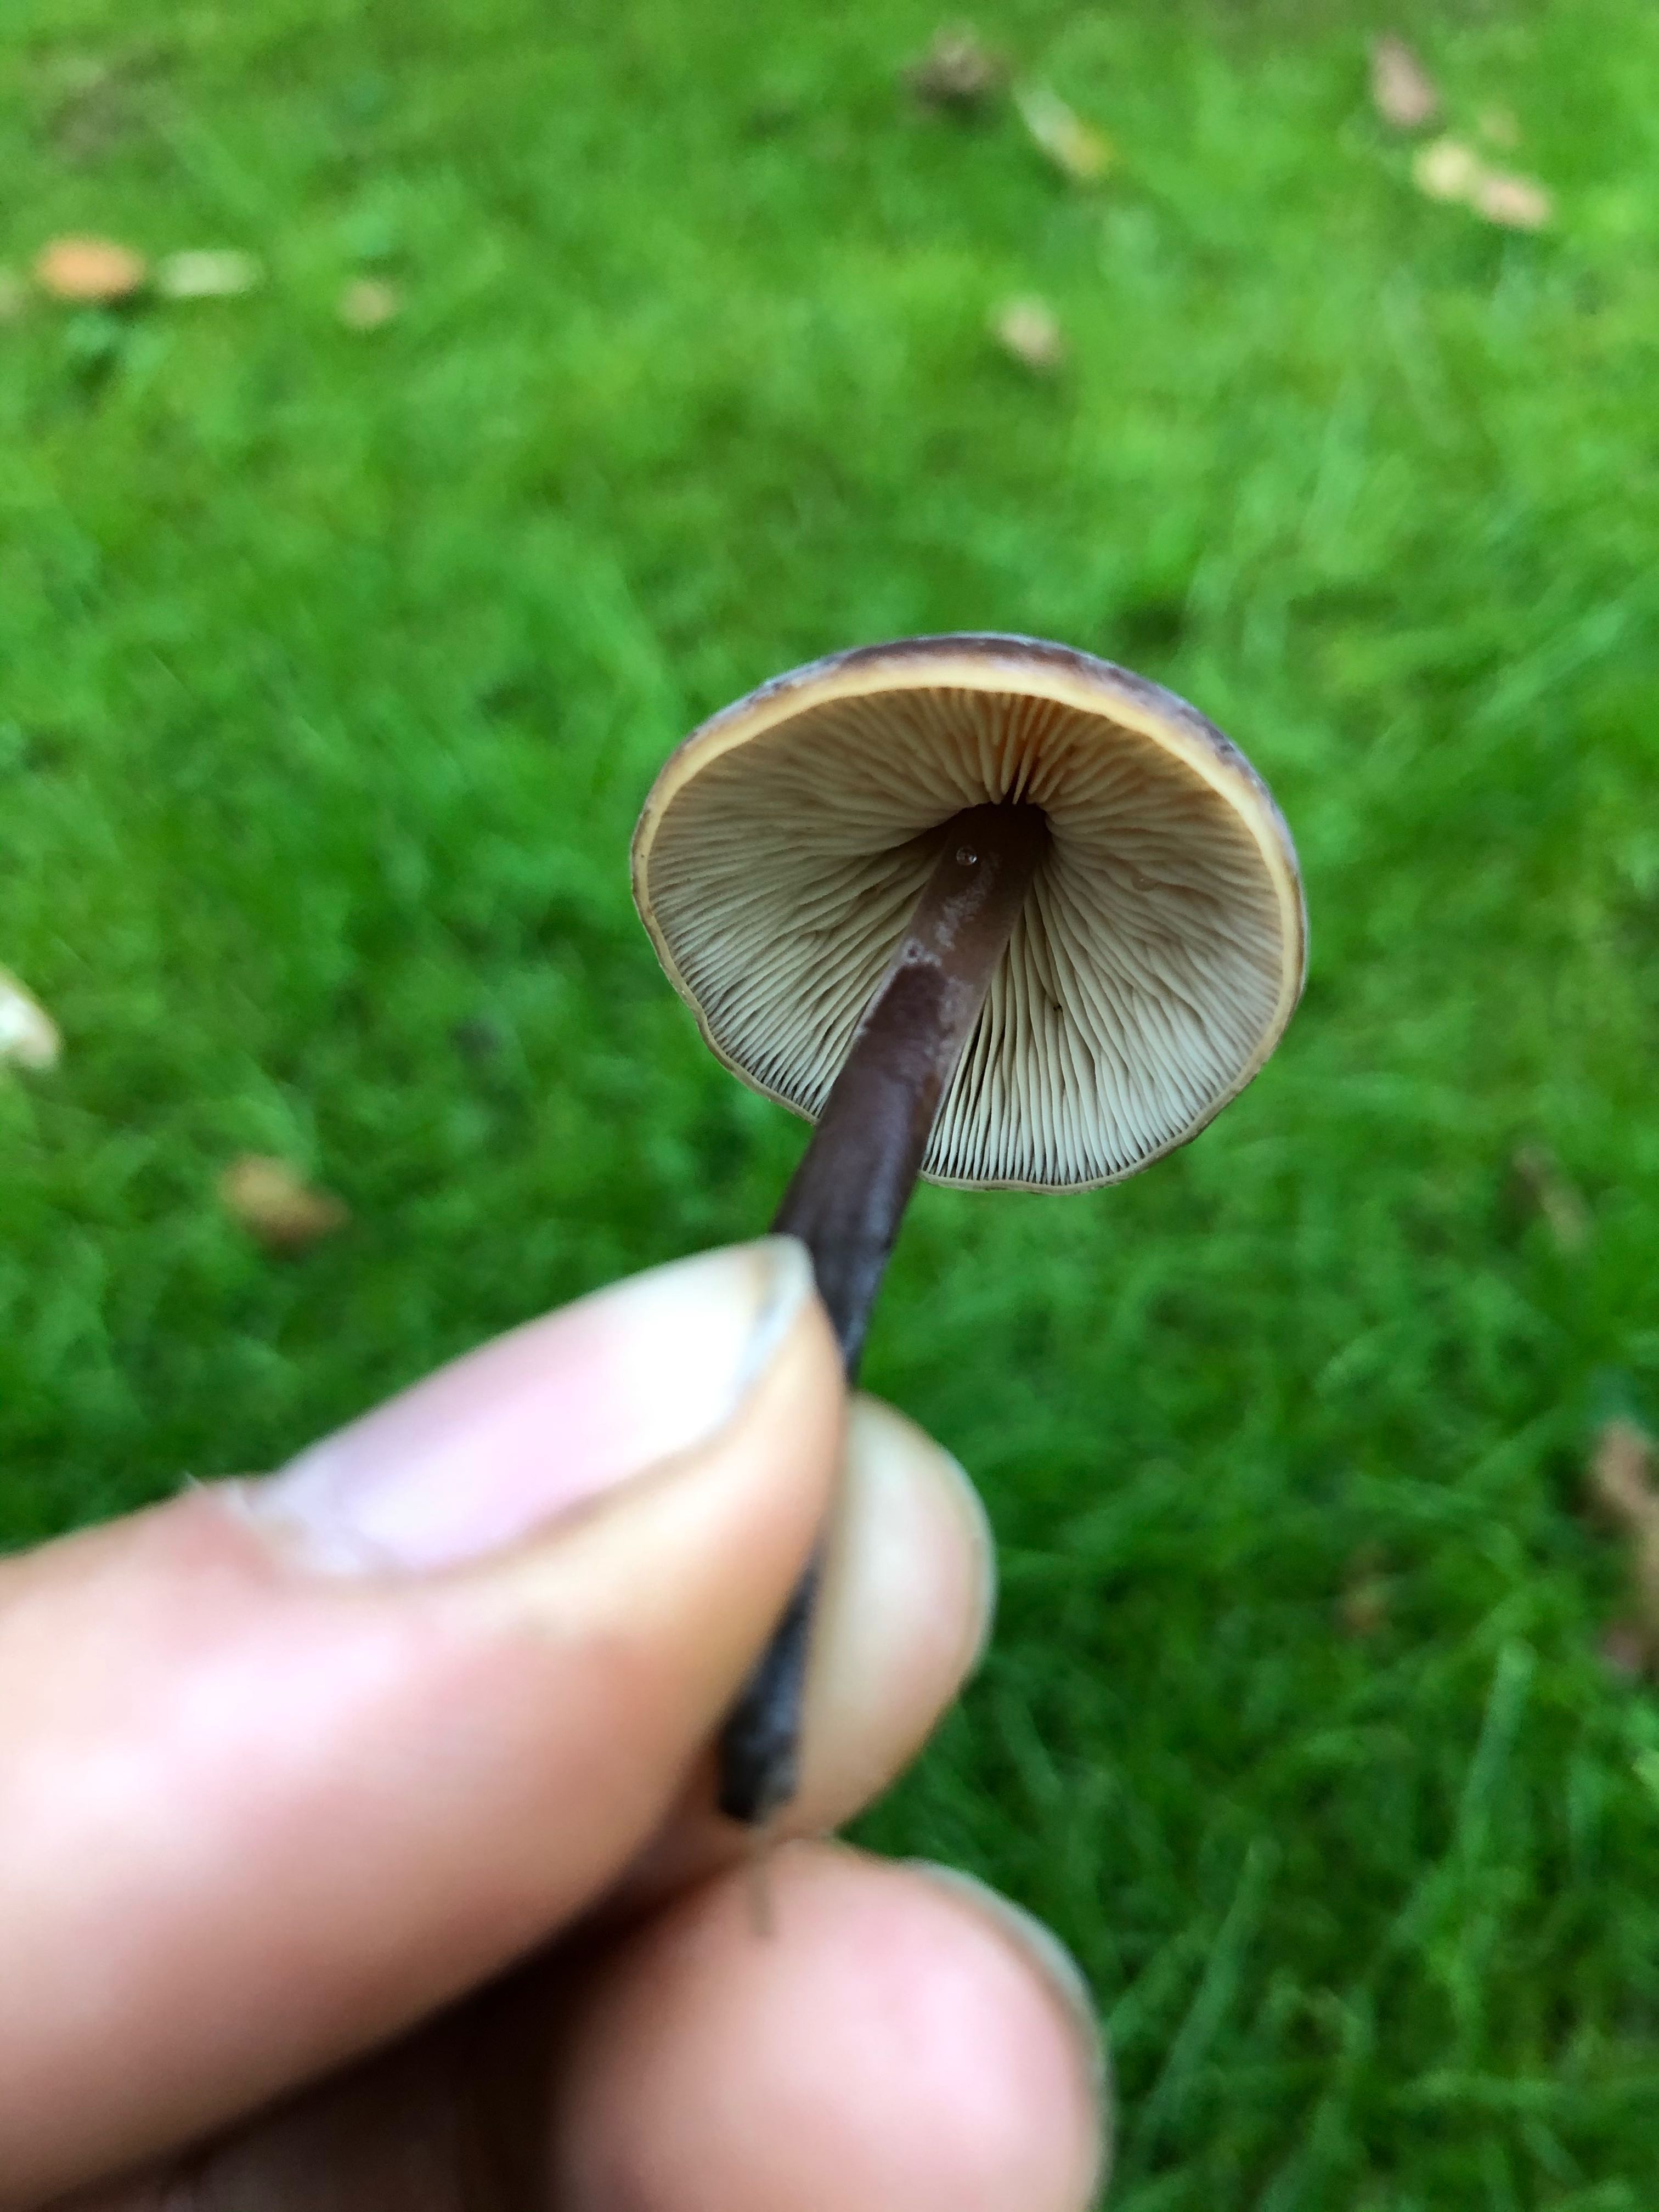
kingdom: Fungi
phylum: Basidiomycota
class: Agaricomycetes
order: Agaricales
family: Macrocystidiaceae
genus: Macrocystidia
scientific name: Macrocystidia cucumis
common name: agurkehat
